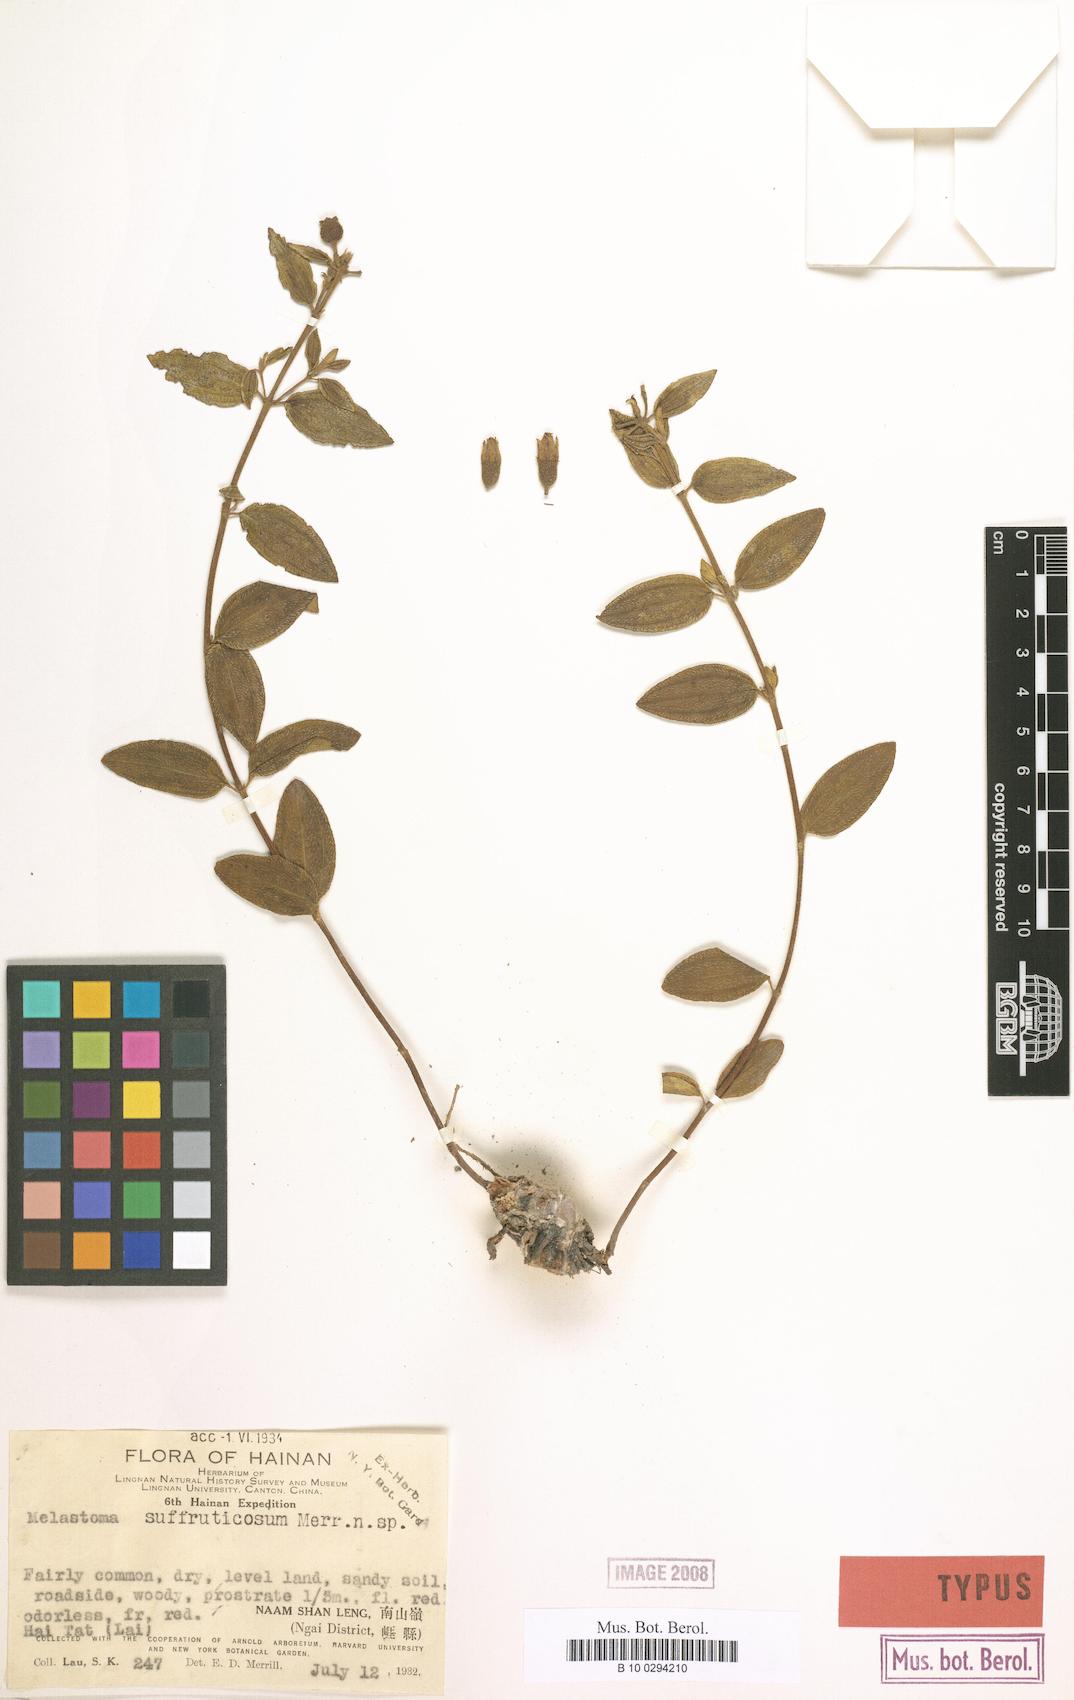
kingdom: Plantae
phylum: Tracheophyta
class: Magnoliopsida
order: Myrtales
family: Melastomataceae
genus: Melastoma
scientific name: Melastoma intermedium
